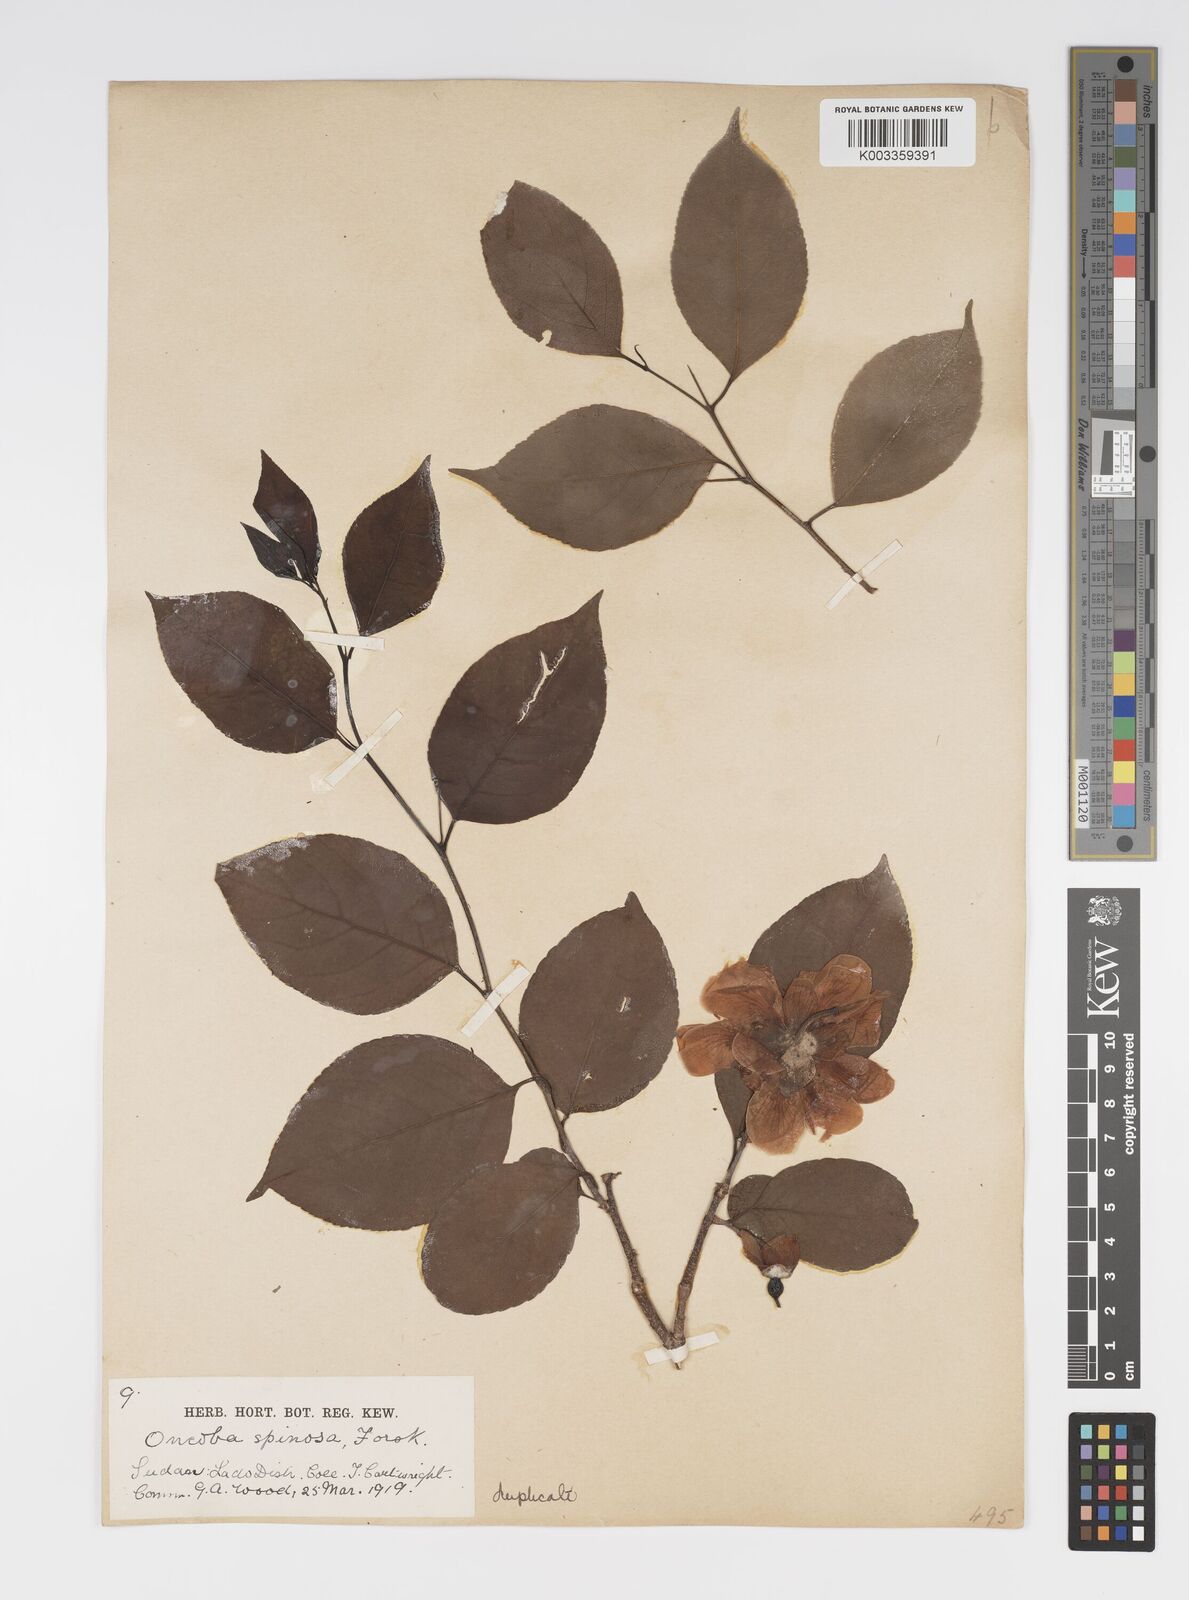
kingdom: Plantae
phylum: Tracheophyta
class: Magnoliopsida
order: Malpighiales
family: Salicaceae
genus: Oncoba
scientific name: Oncoba spinosa
